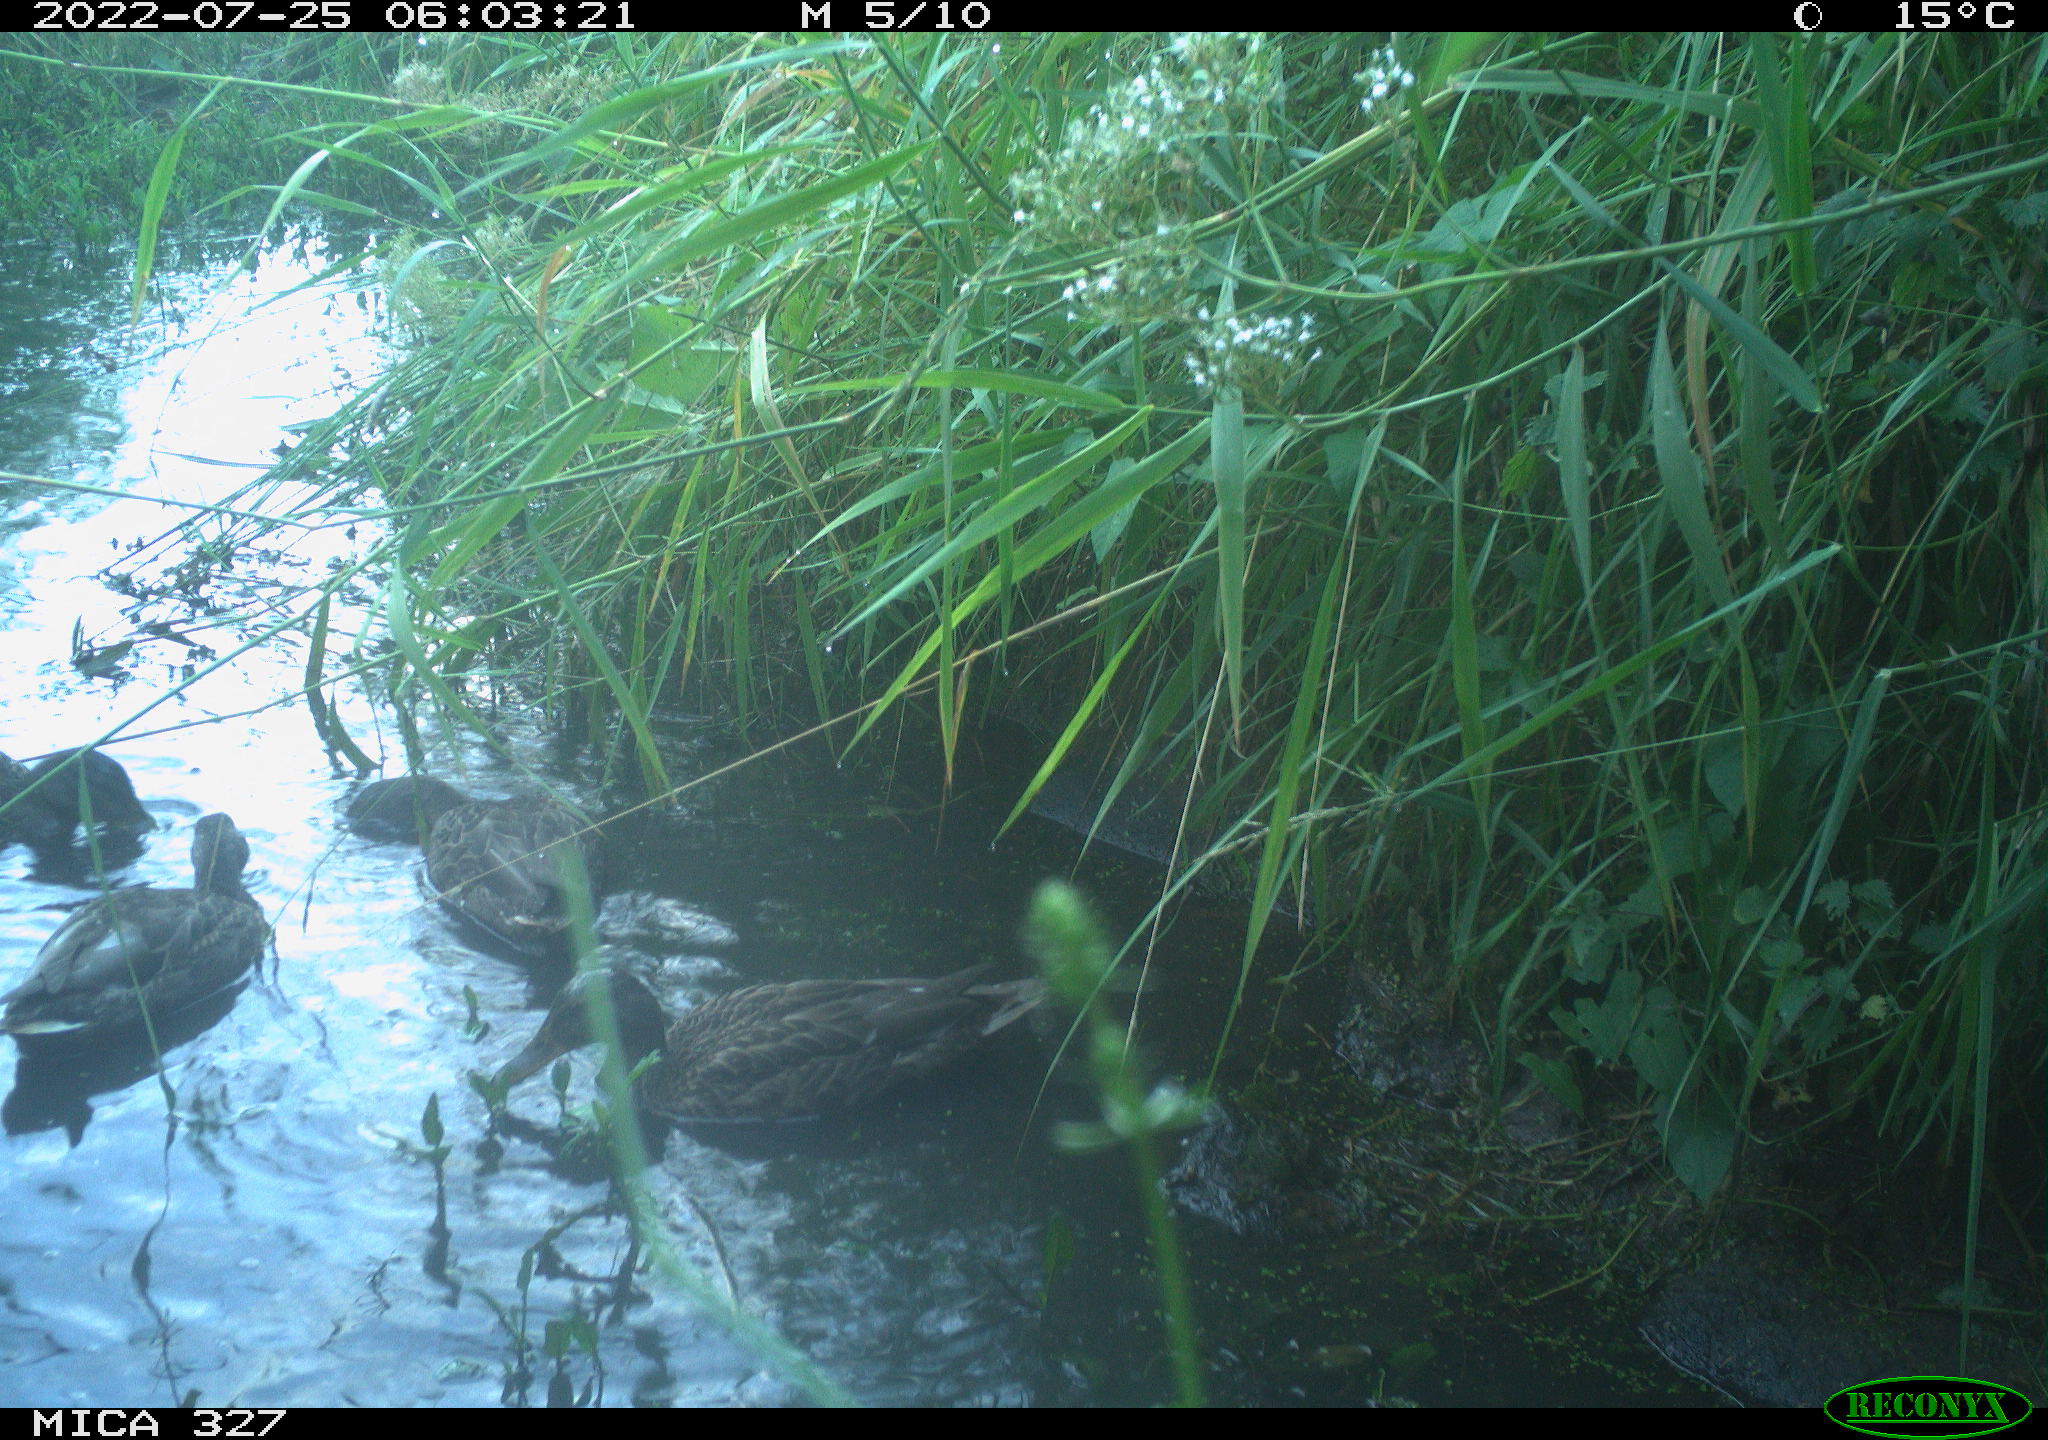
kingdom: Animalia
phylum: Chordata
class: Aves
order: Anseriformes
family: Anatidae
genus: Anas
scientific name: Anas
